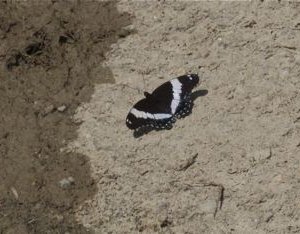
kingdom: Animalia
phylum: Arthropoda
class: Insecta
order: Lepidoptera
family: Nymphalidae
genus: Limenitis
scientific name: Limenitis arthemis
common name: Red-spotted Admiral
